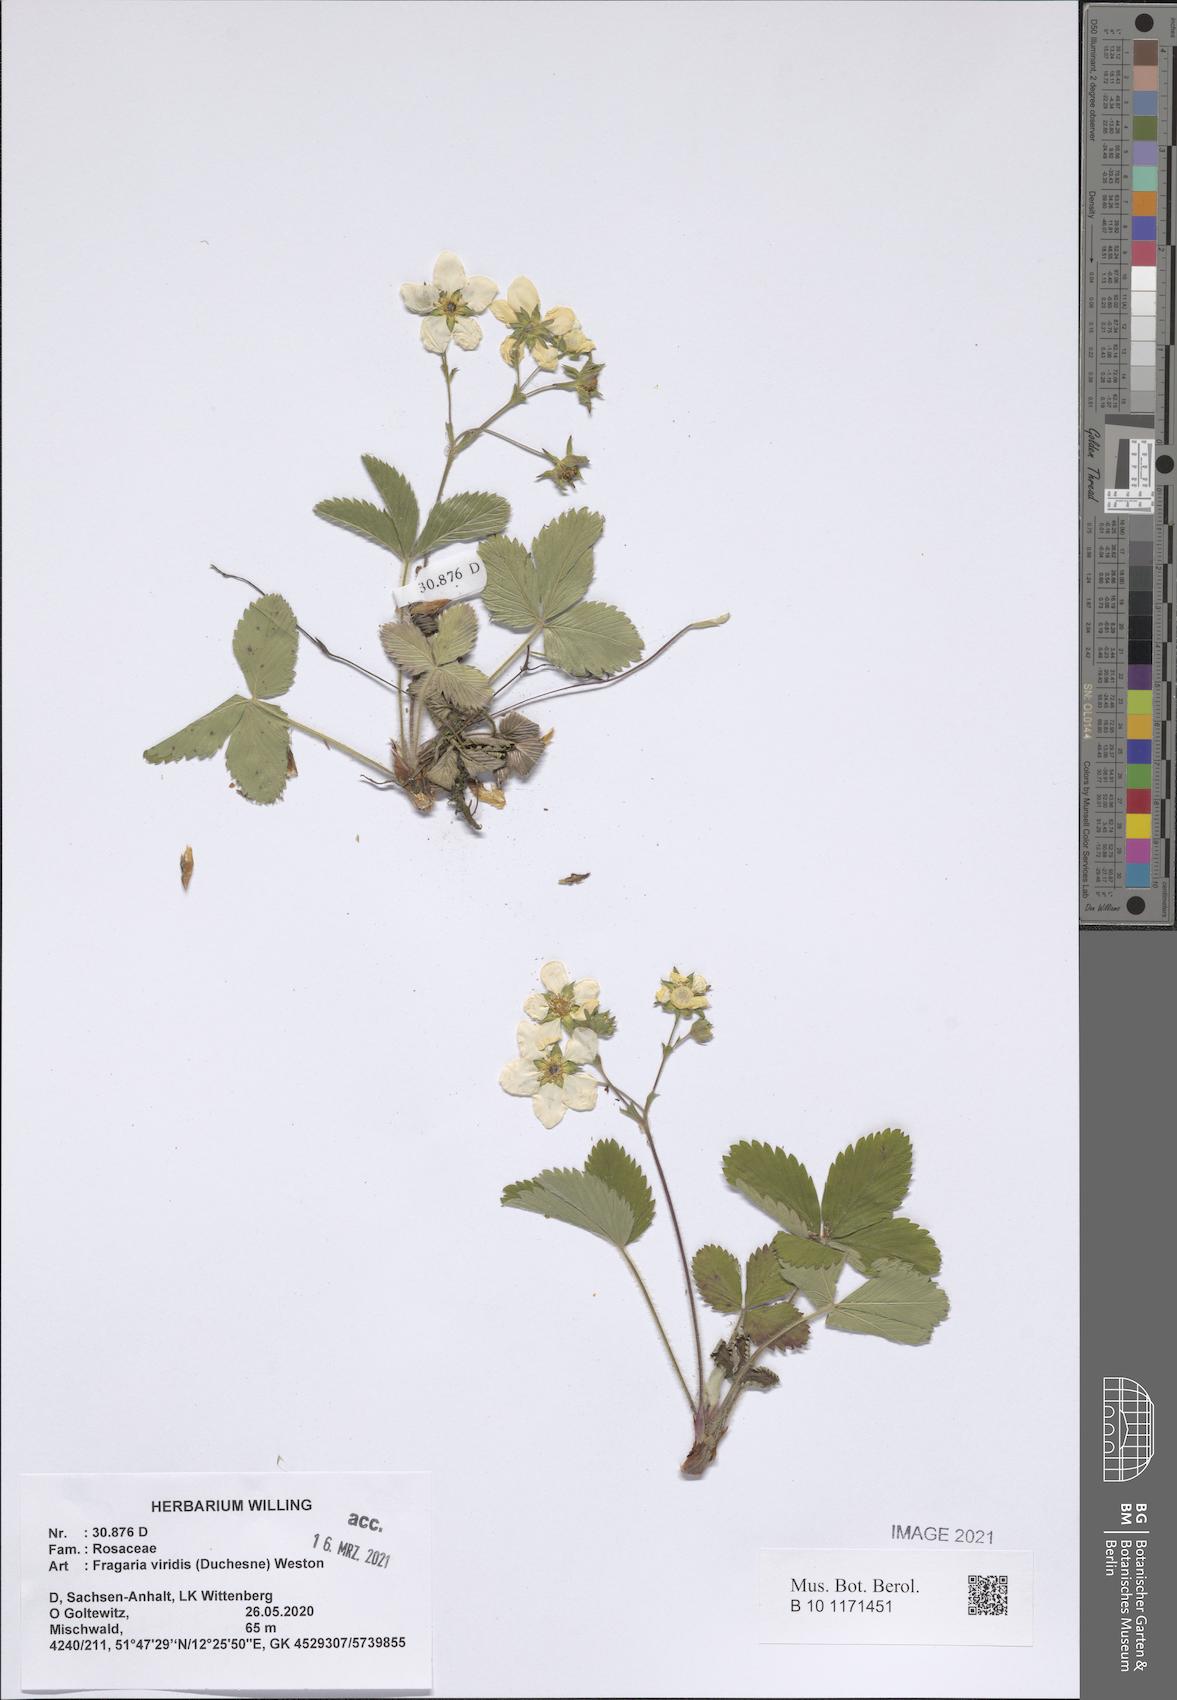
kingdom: Plantae
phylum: Tracheophyta
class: Magnoliopsida
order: Rosales
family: Rosaceae
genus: Fragaria
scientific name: Fragaria viridis
